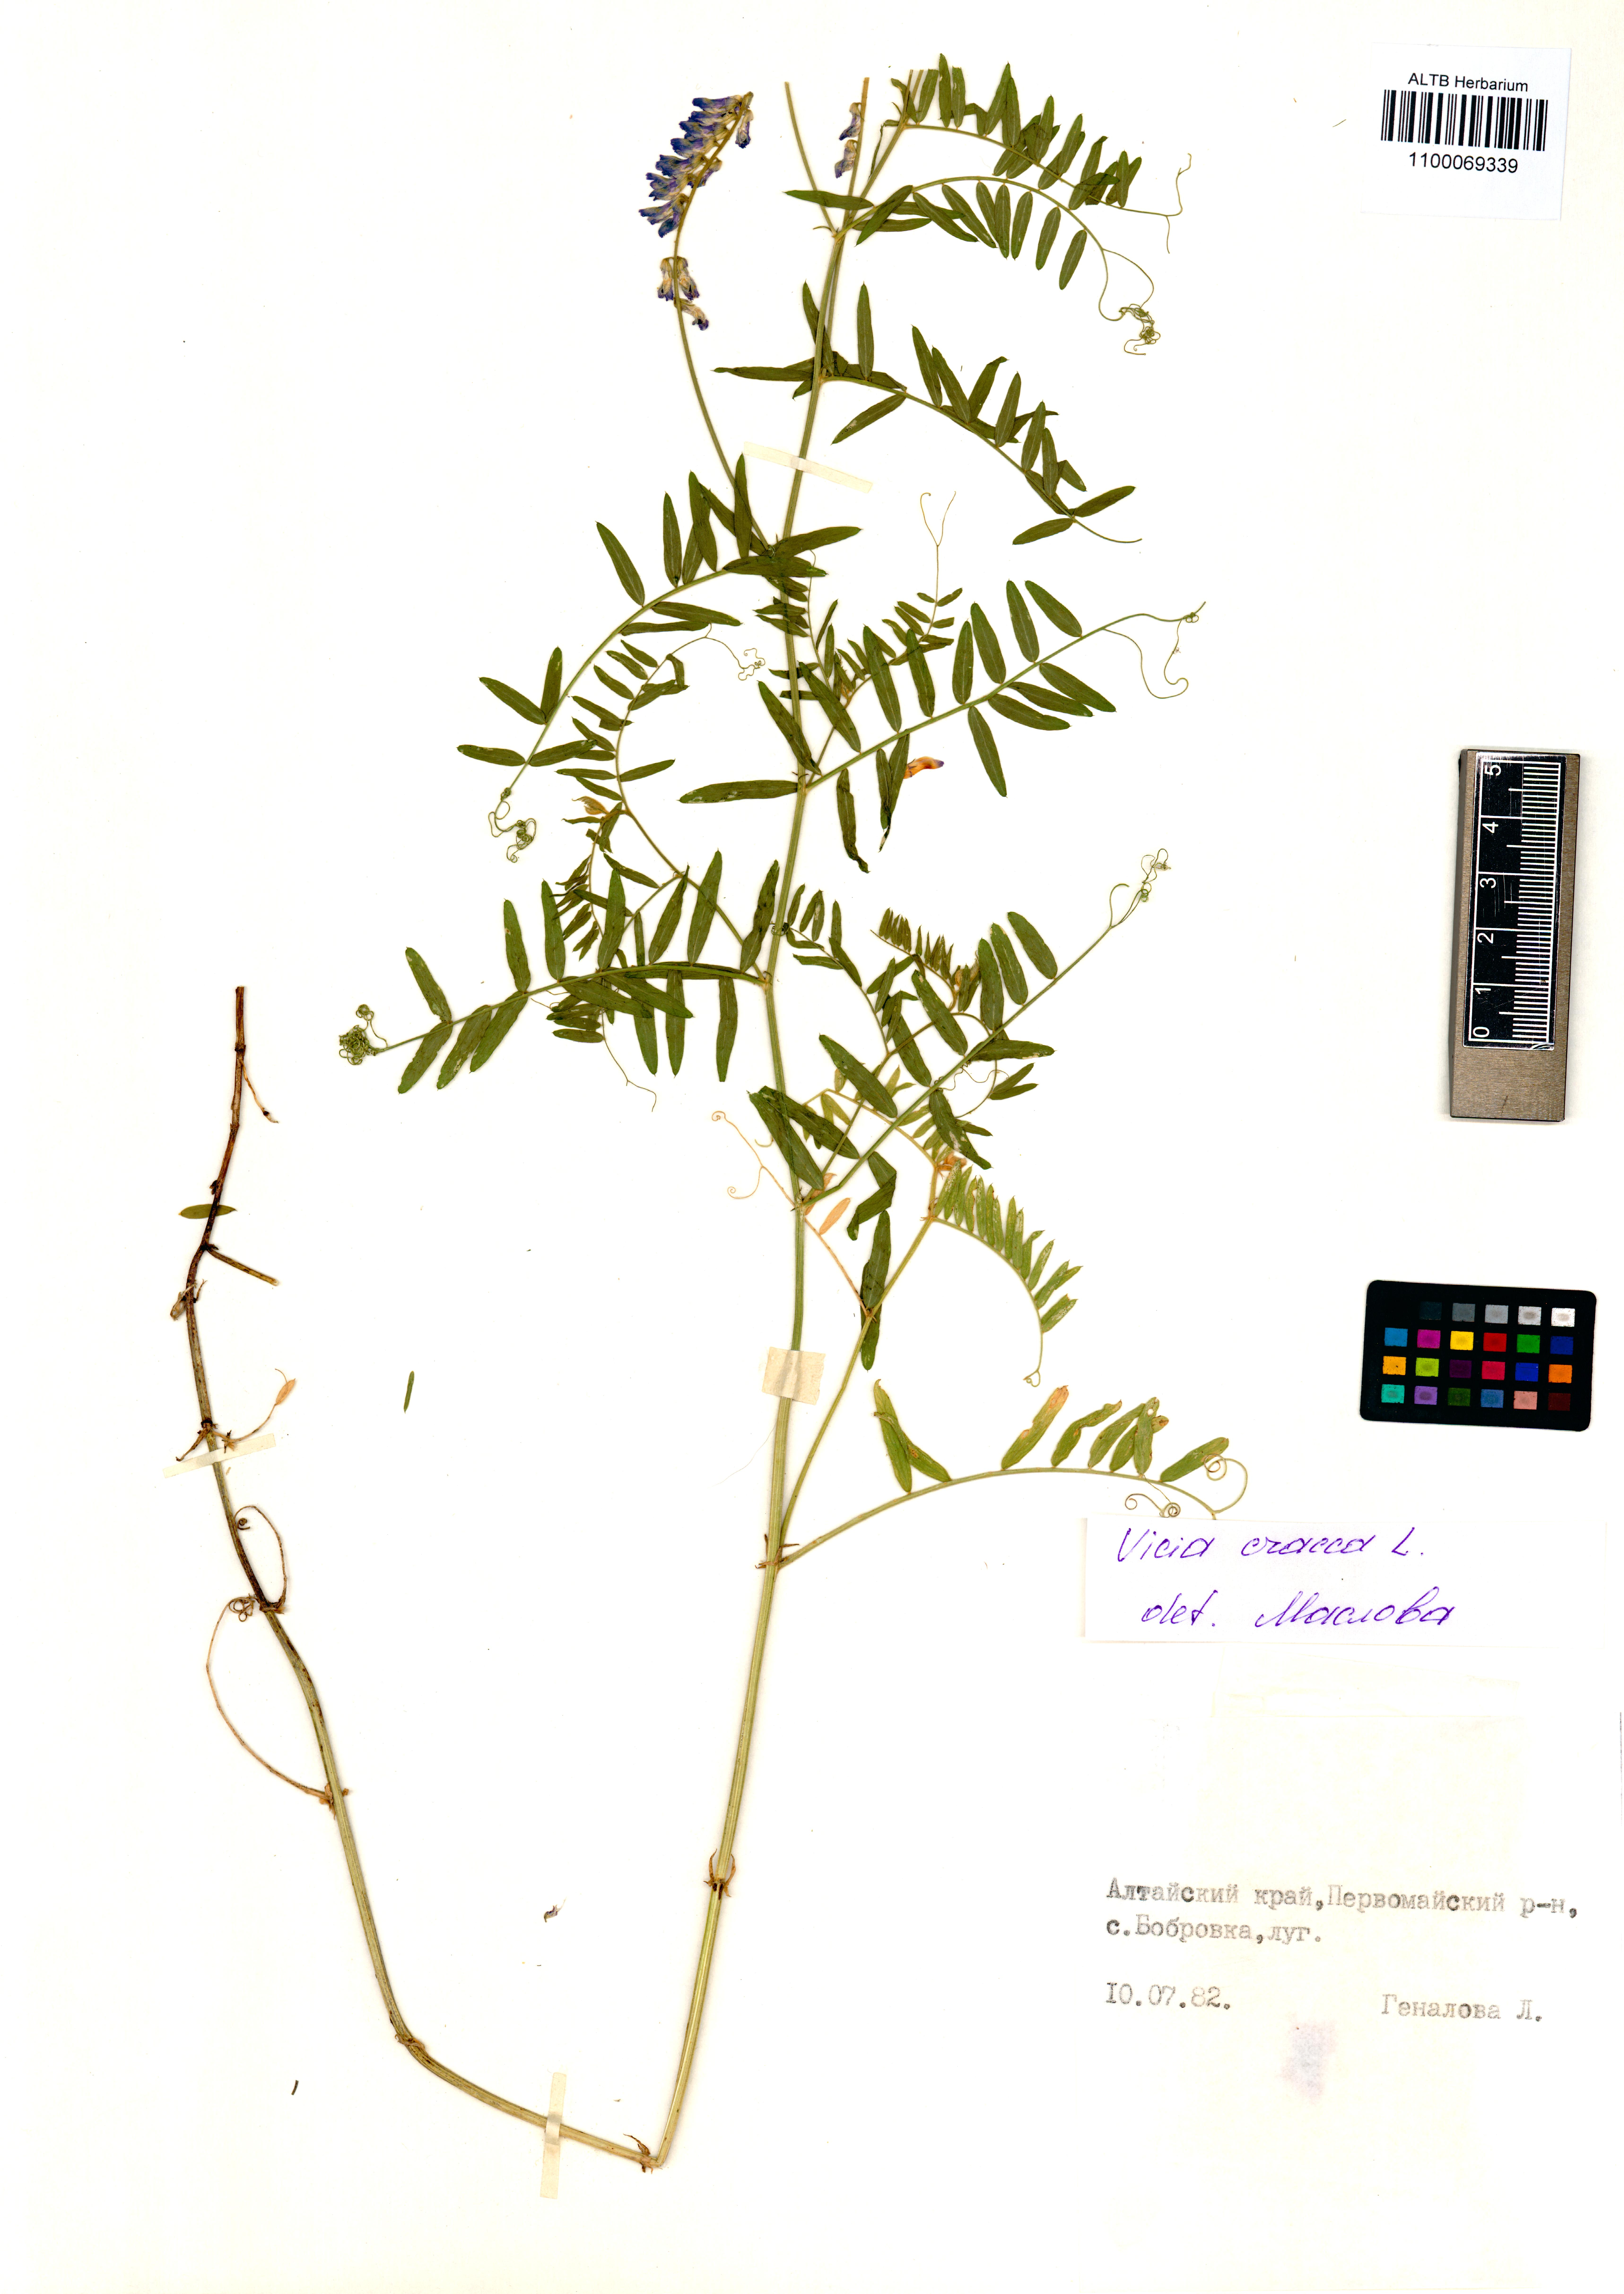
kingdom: Plantae
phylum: Tracheophyta
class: Magnoliopsida
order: Fabales
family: Fabaceae
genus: Vicia
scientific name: Vicia cracca
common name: Bird vetch
